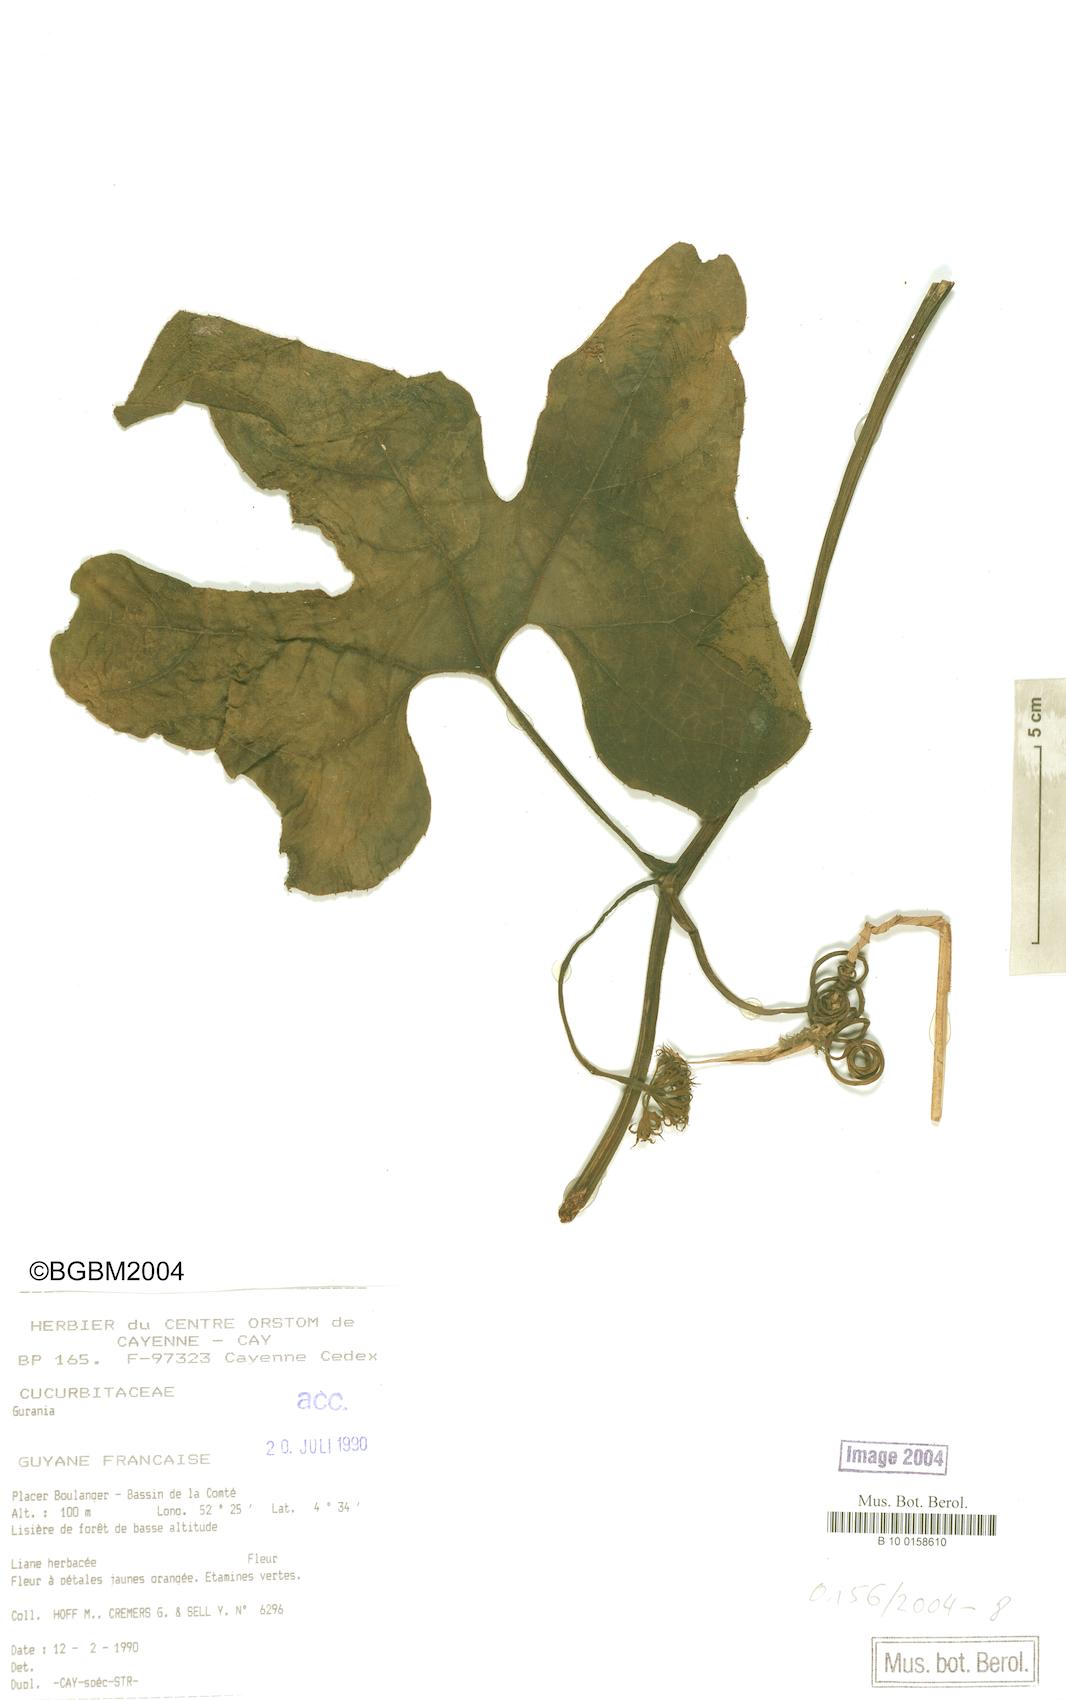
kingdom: Plantae
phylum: Tracheophyta
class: Magnoliopsida
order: Cucurbitales
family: Cucurbitaceae
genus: Gurania
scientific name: Gurania subumbellata
